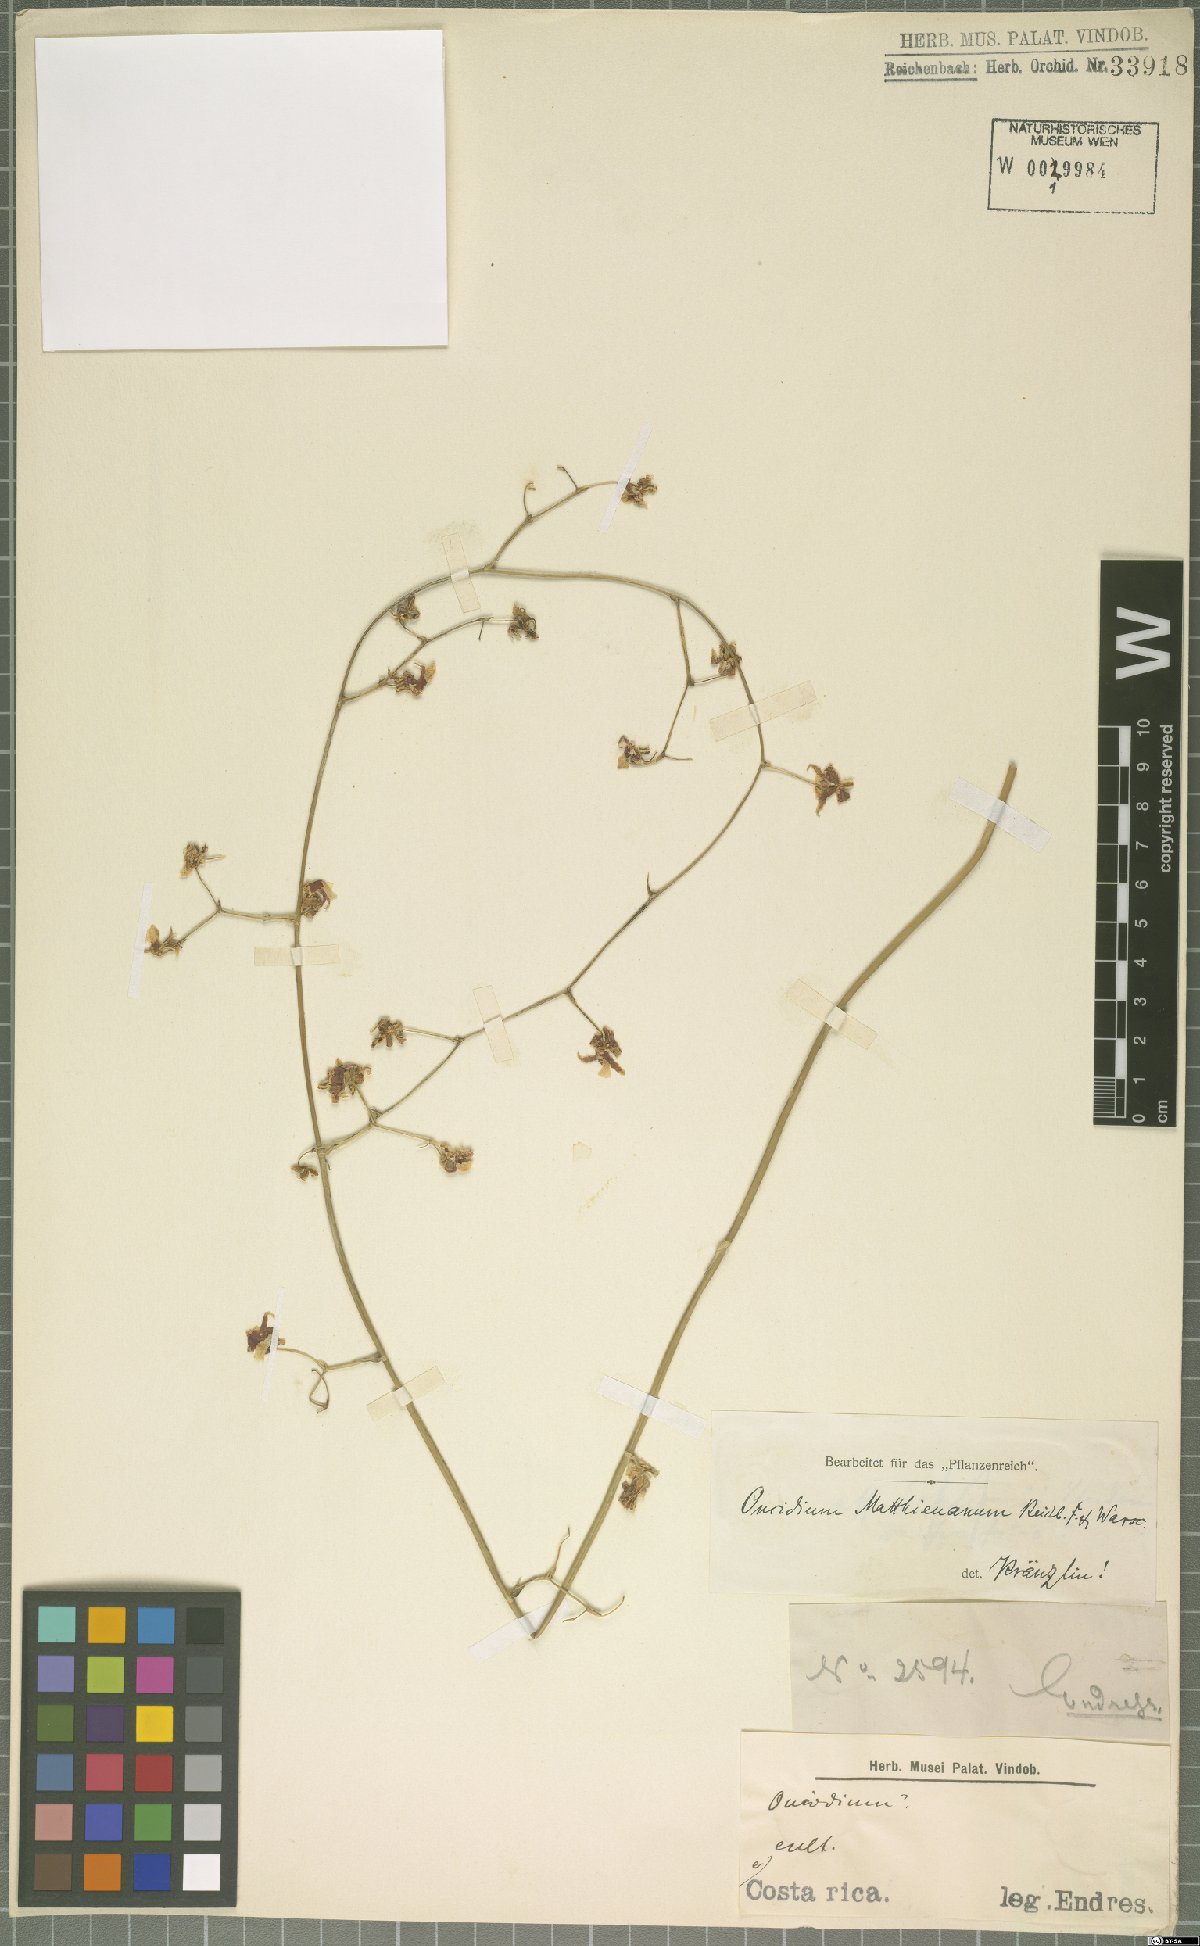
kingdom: Plantae
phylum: Tracheophyta
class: Liliopsida
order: Asparagales
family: Orchidaceae
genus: Oncidium
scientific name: Oncidium mathieuanum
